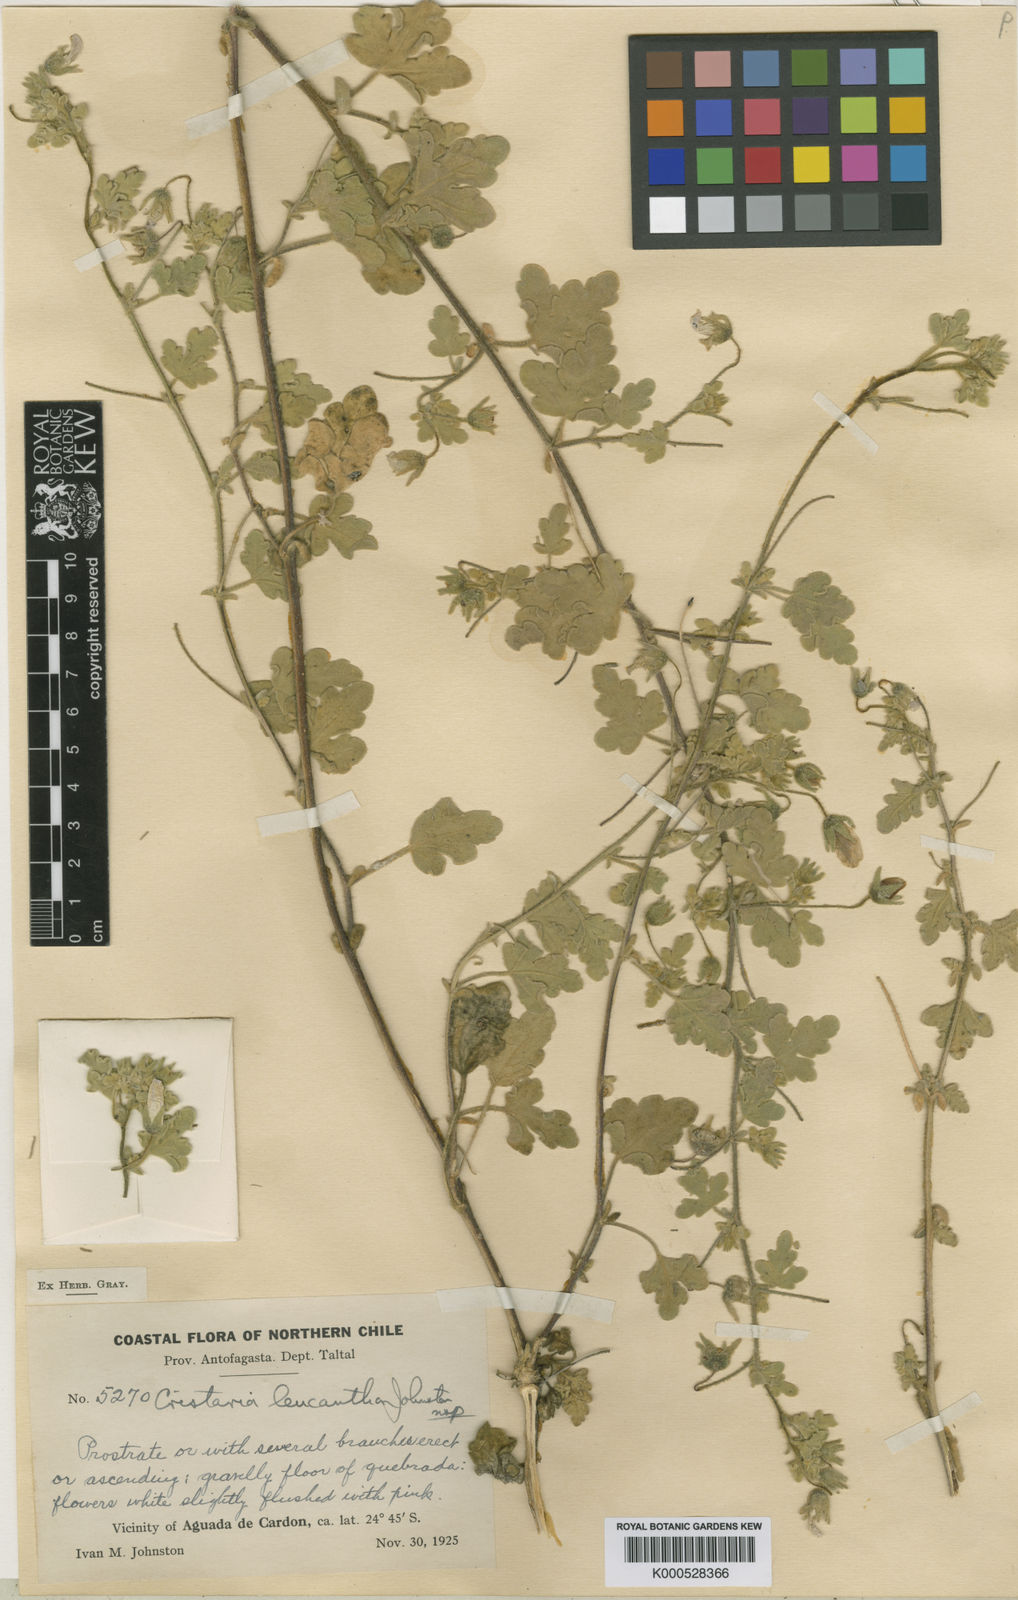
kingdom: Plantae
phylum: Tracheophyta
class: Magnoliopsida
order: Malvales
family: Malvaceae
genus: Cristaria
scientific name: Cristaria leucantha
